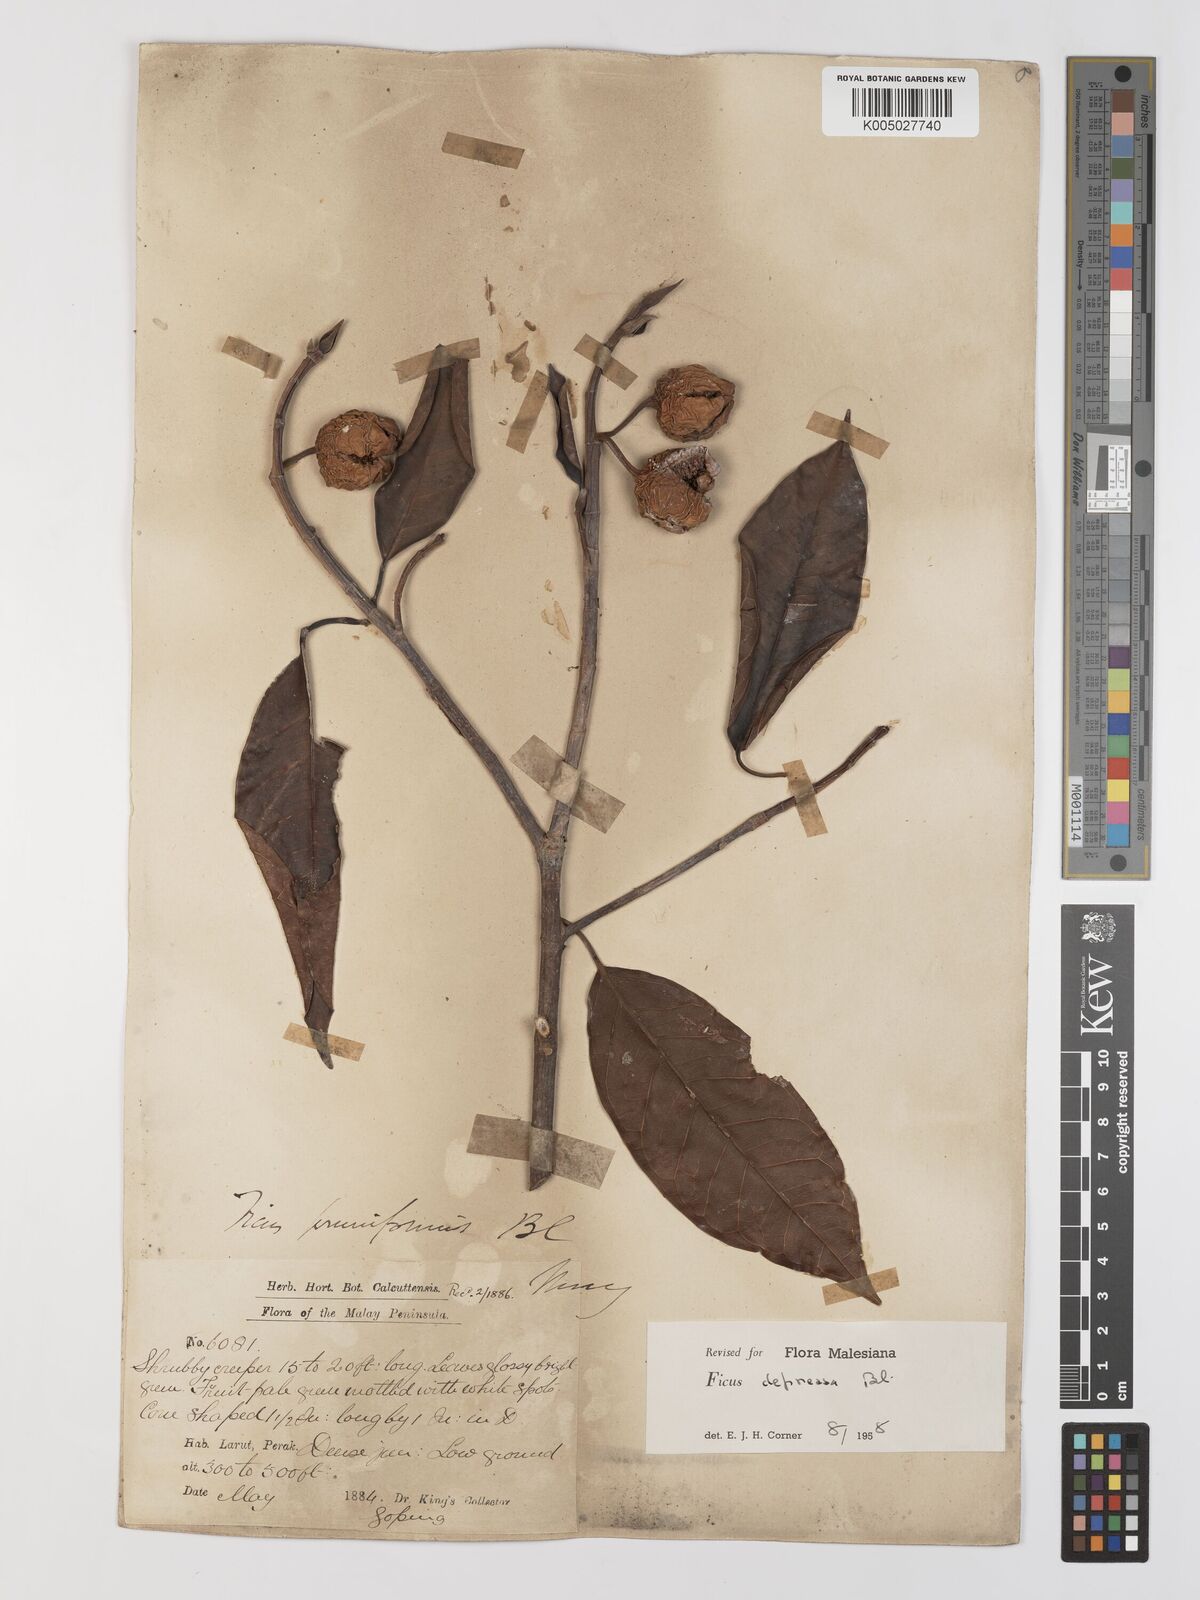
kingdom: Plantae
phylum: Tracheophyta
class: Magnoliopsida
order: Rosales
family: Moraceae
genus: Ficus
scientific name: Ficus
